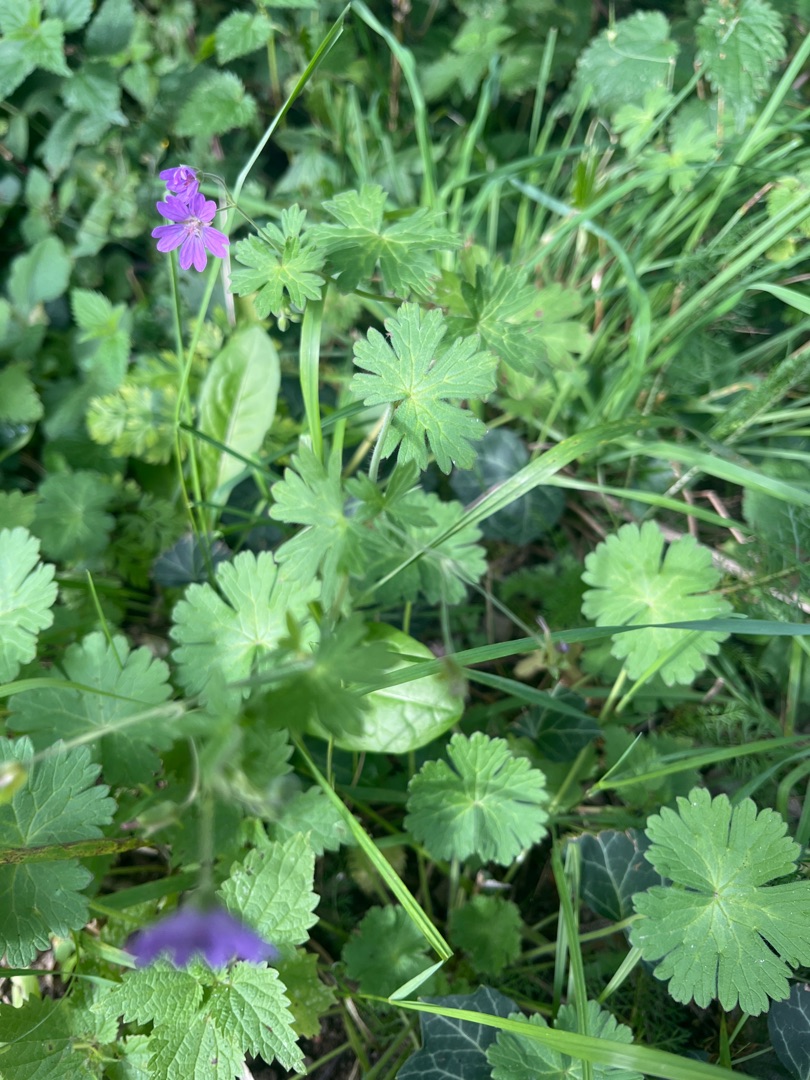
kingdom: Plantae
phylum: Tracheophyta
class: Magnoliopsida
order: Geraniales
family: Geraniaceae
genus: Geranium
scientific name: Geranium pyrenaicum
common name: Pyrenæisk storkenæb
